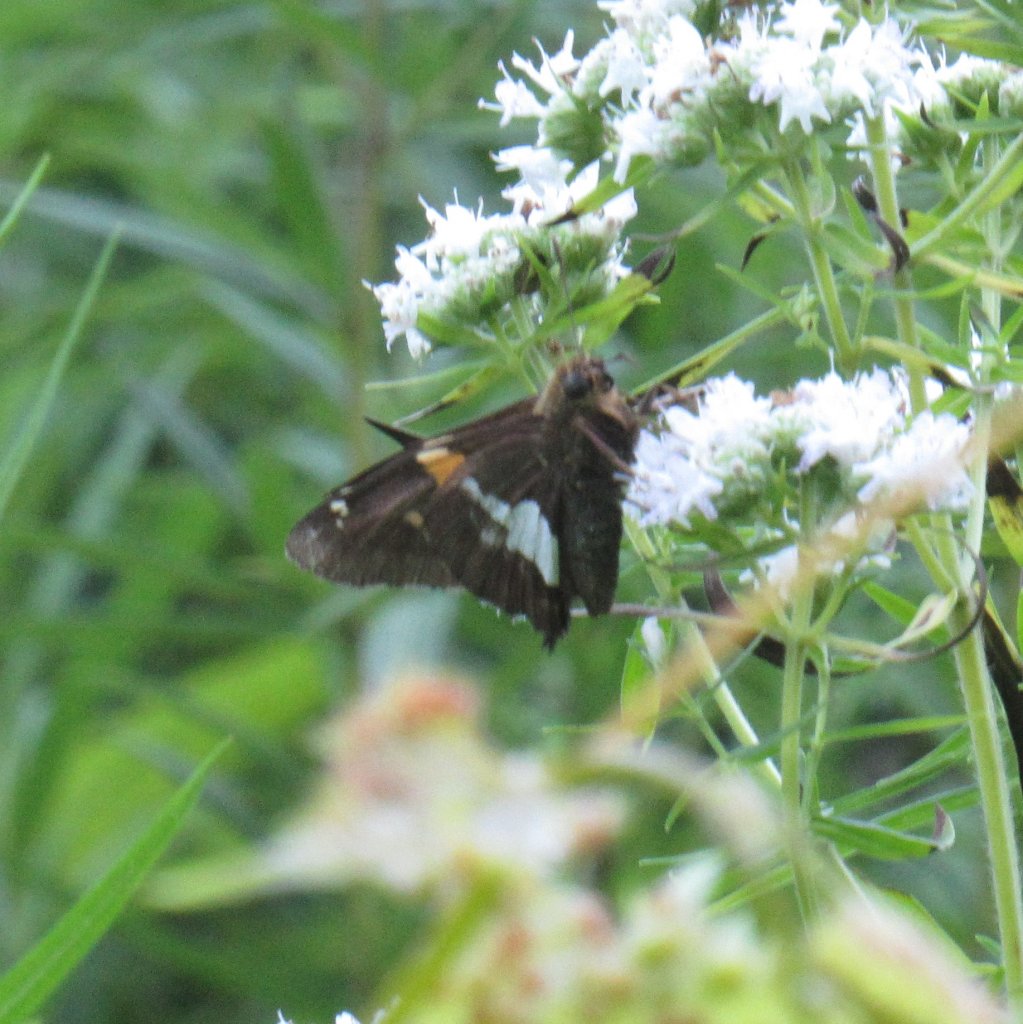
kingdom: Animalia
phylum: Arthropoda
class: Insecta
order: Lepidoptera
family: Hesperiidae
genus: Epargyreus
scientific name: Epargyreus clarus
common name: Silver-spotted Skipper
